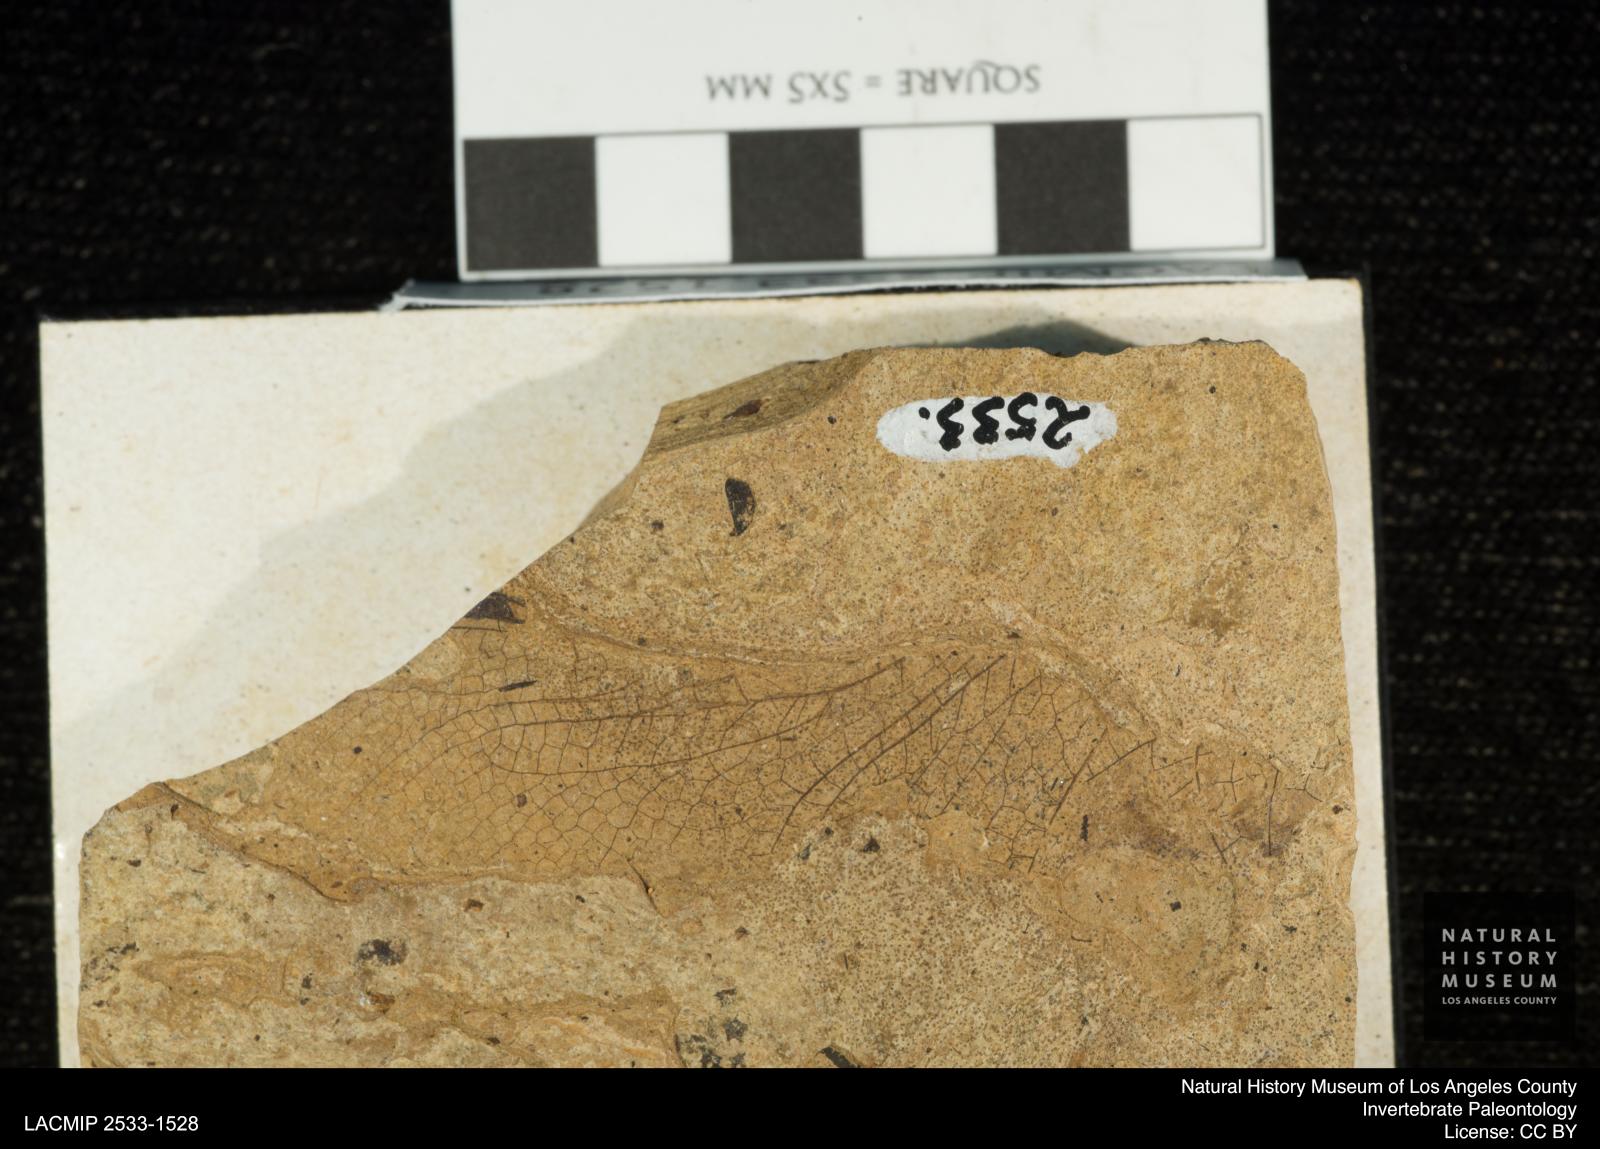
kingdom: Animalia
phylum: Arthropoda
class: Insecta
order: Odonata
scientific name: Odonata
